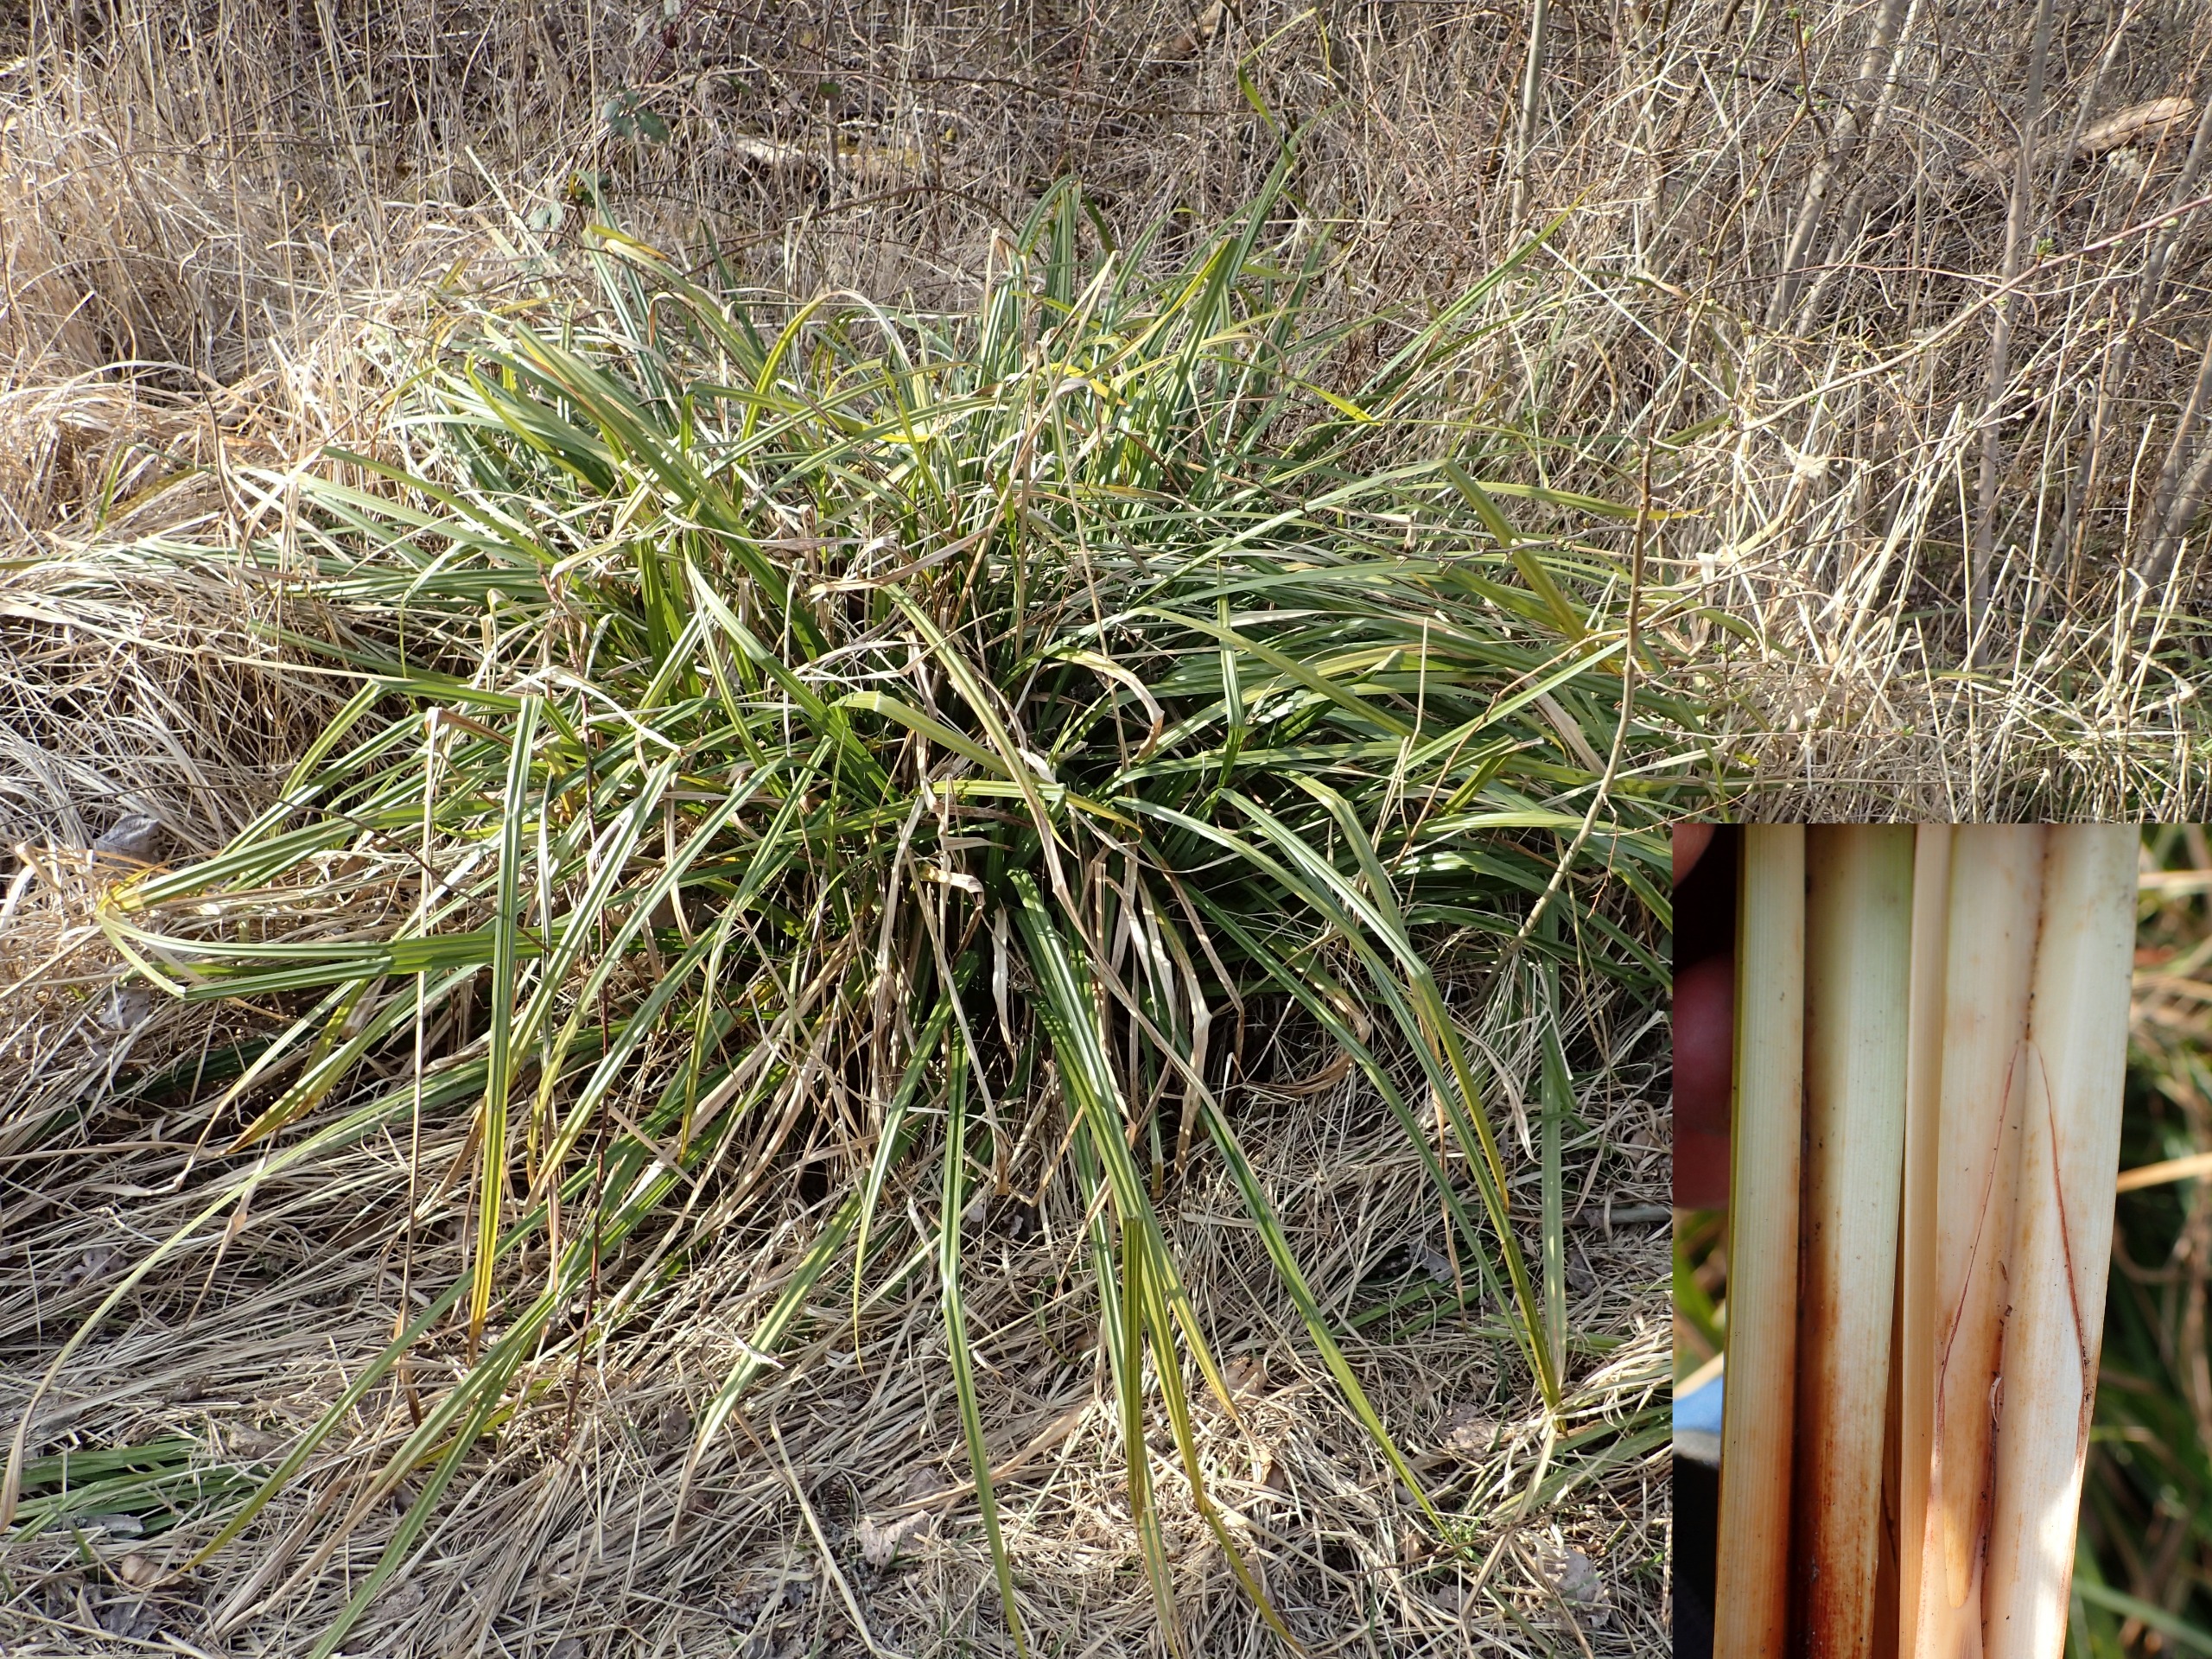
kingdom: Plantae
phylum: Tracheophyta
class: Liliopsida
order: Poales
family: Cyperaceae
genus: Carex
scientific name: Carex pendula
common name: Kæmpe-star
